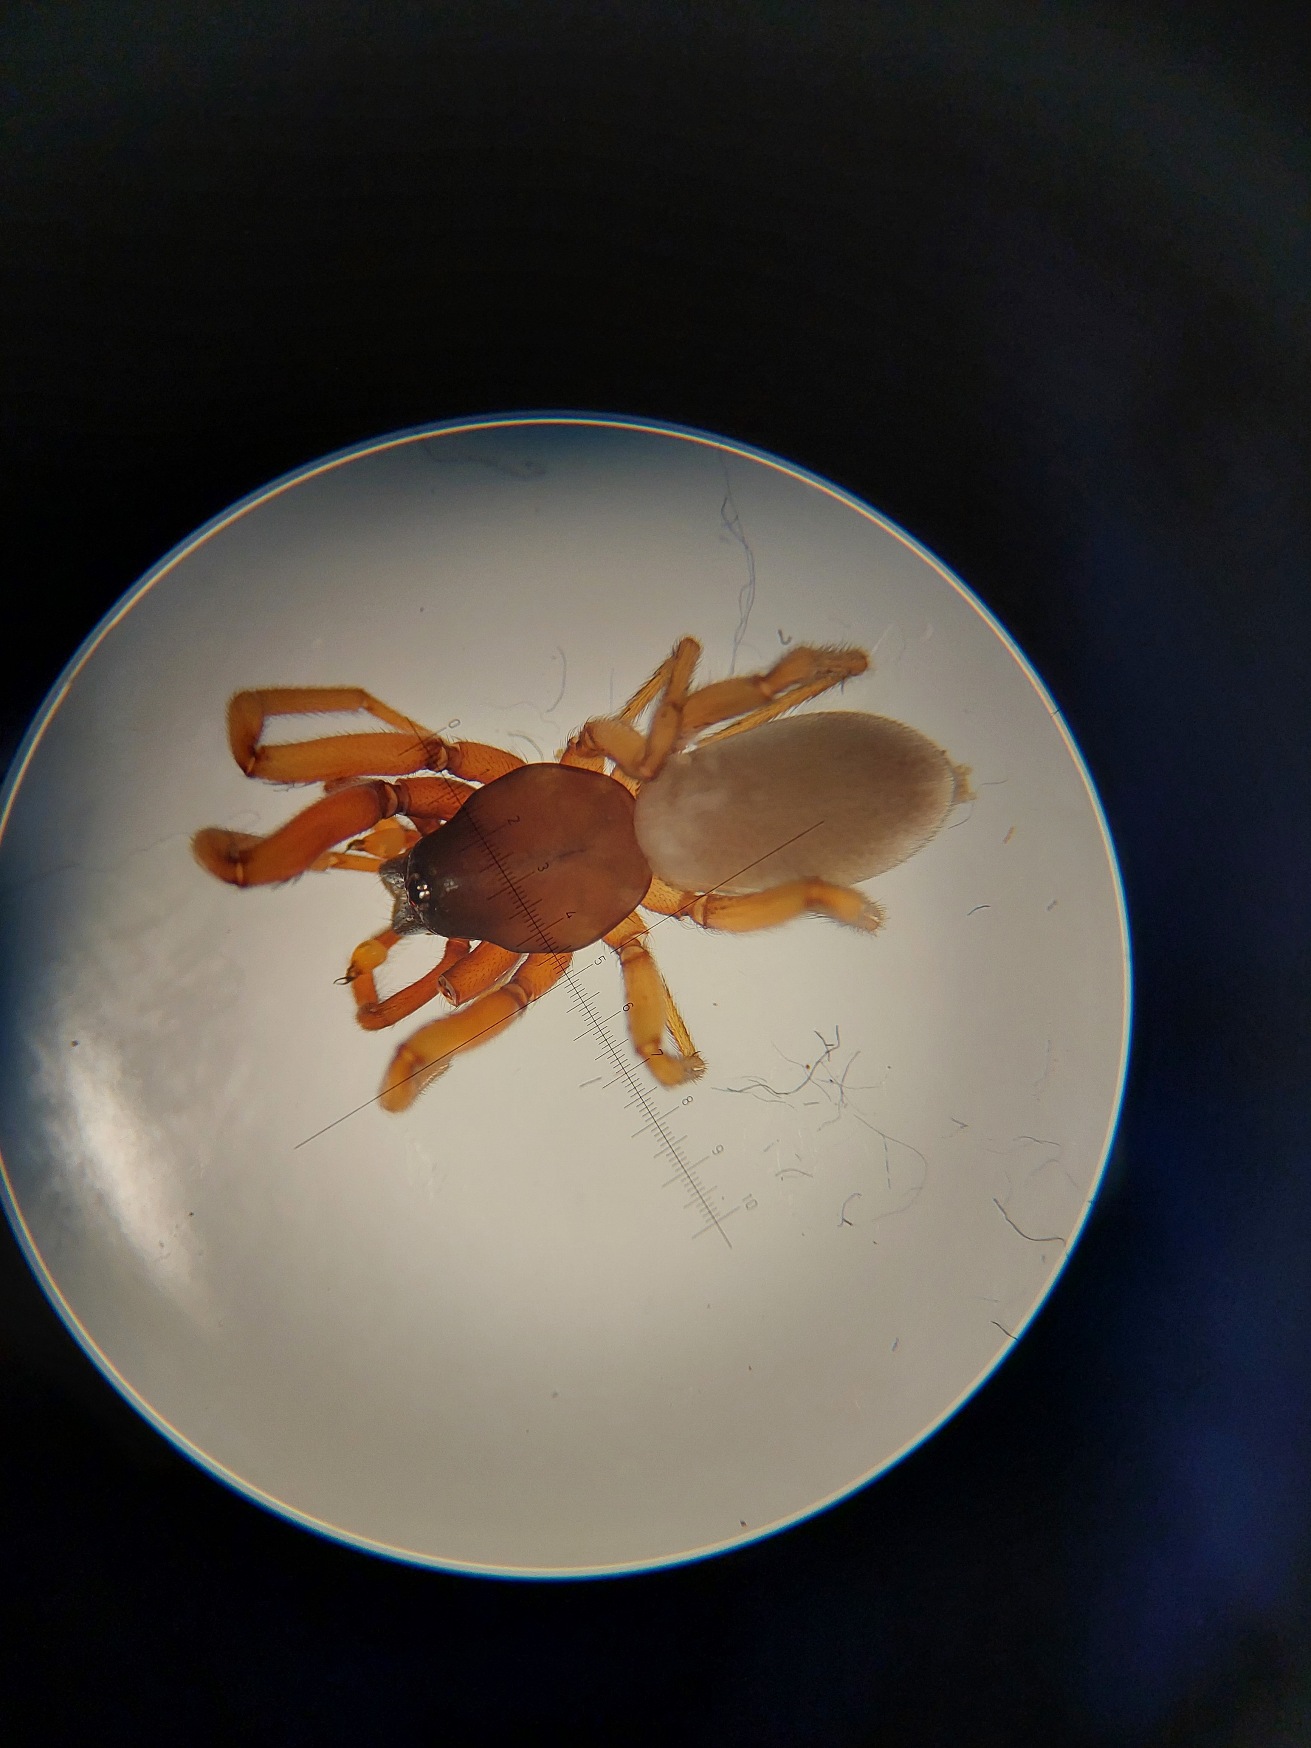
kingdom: Animalia
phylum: Arthropoda
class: Arachnida
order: Araneae
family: Dysderidae
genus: Harpactea
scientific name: Harpactea rubicunda
